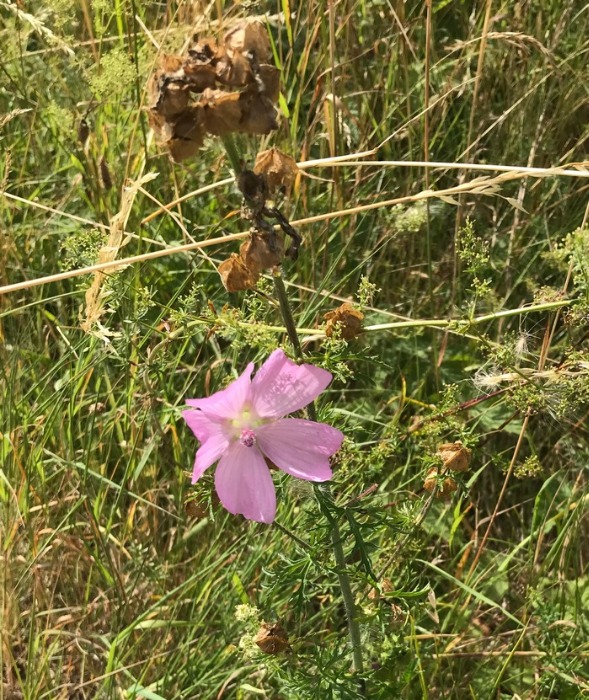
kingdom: Plantae
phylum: Tracheophyta
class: Magnoliopsida
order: Malvales
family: Malvaceae
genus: Malva
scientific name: Malva moschata
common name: Moskus-katost
